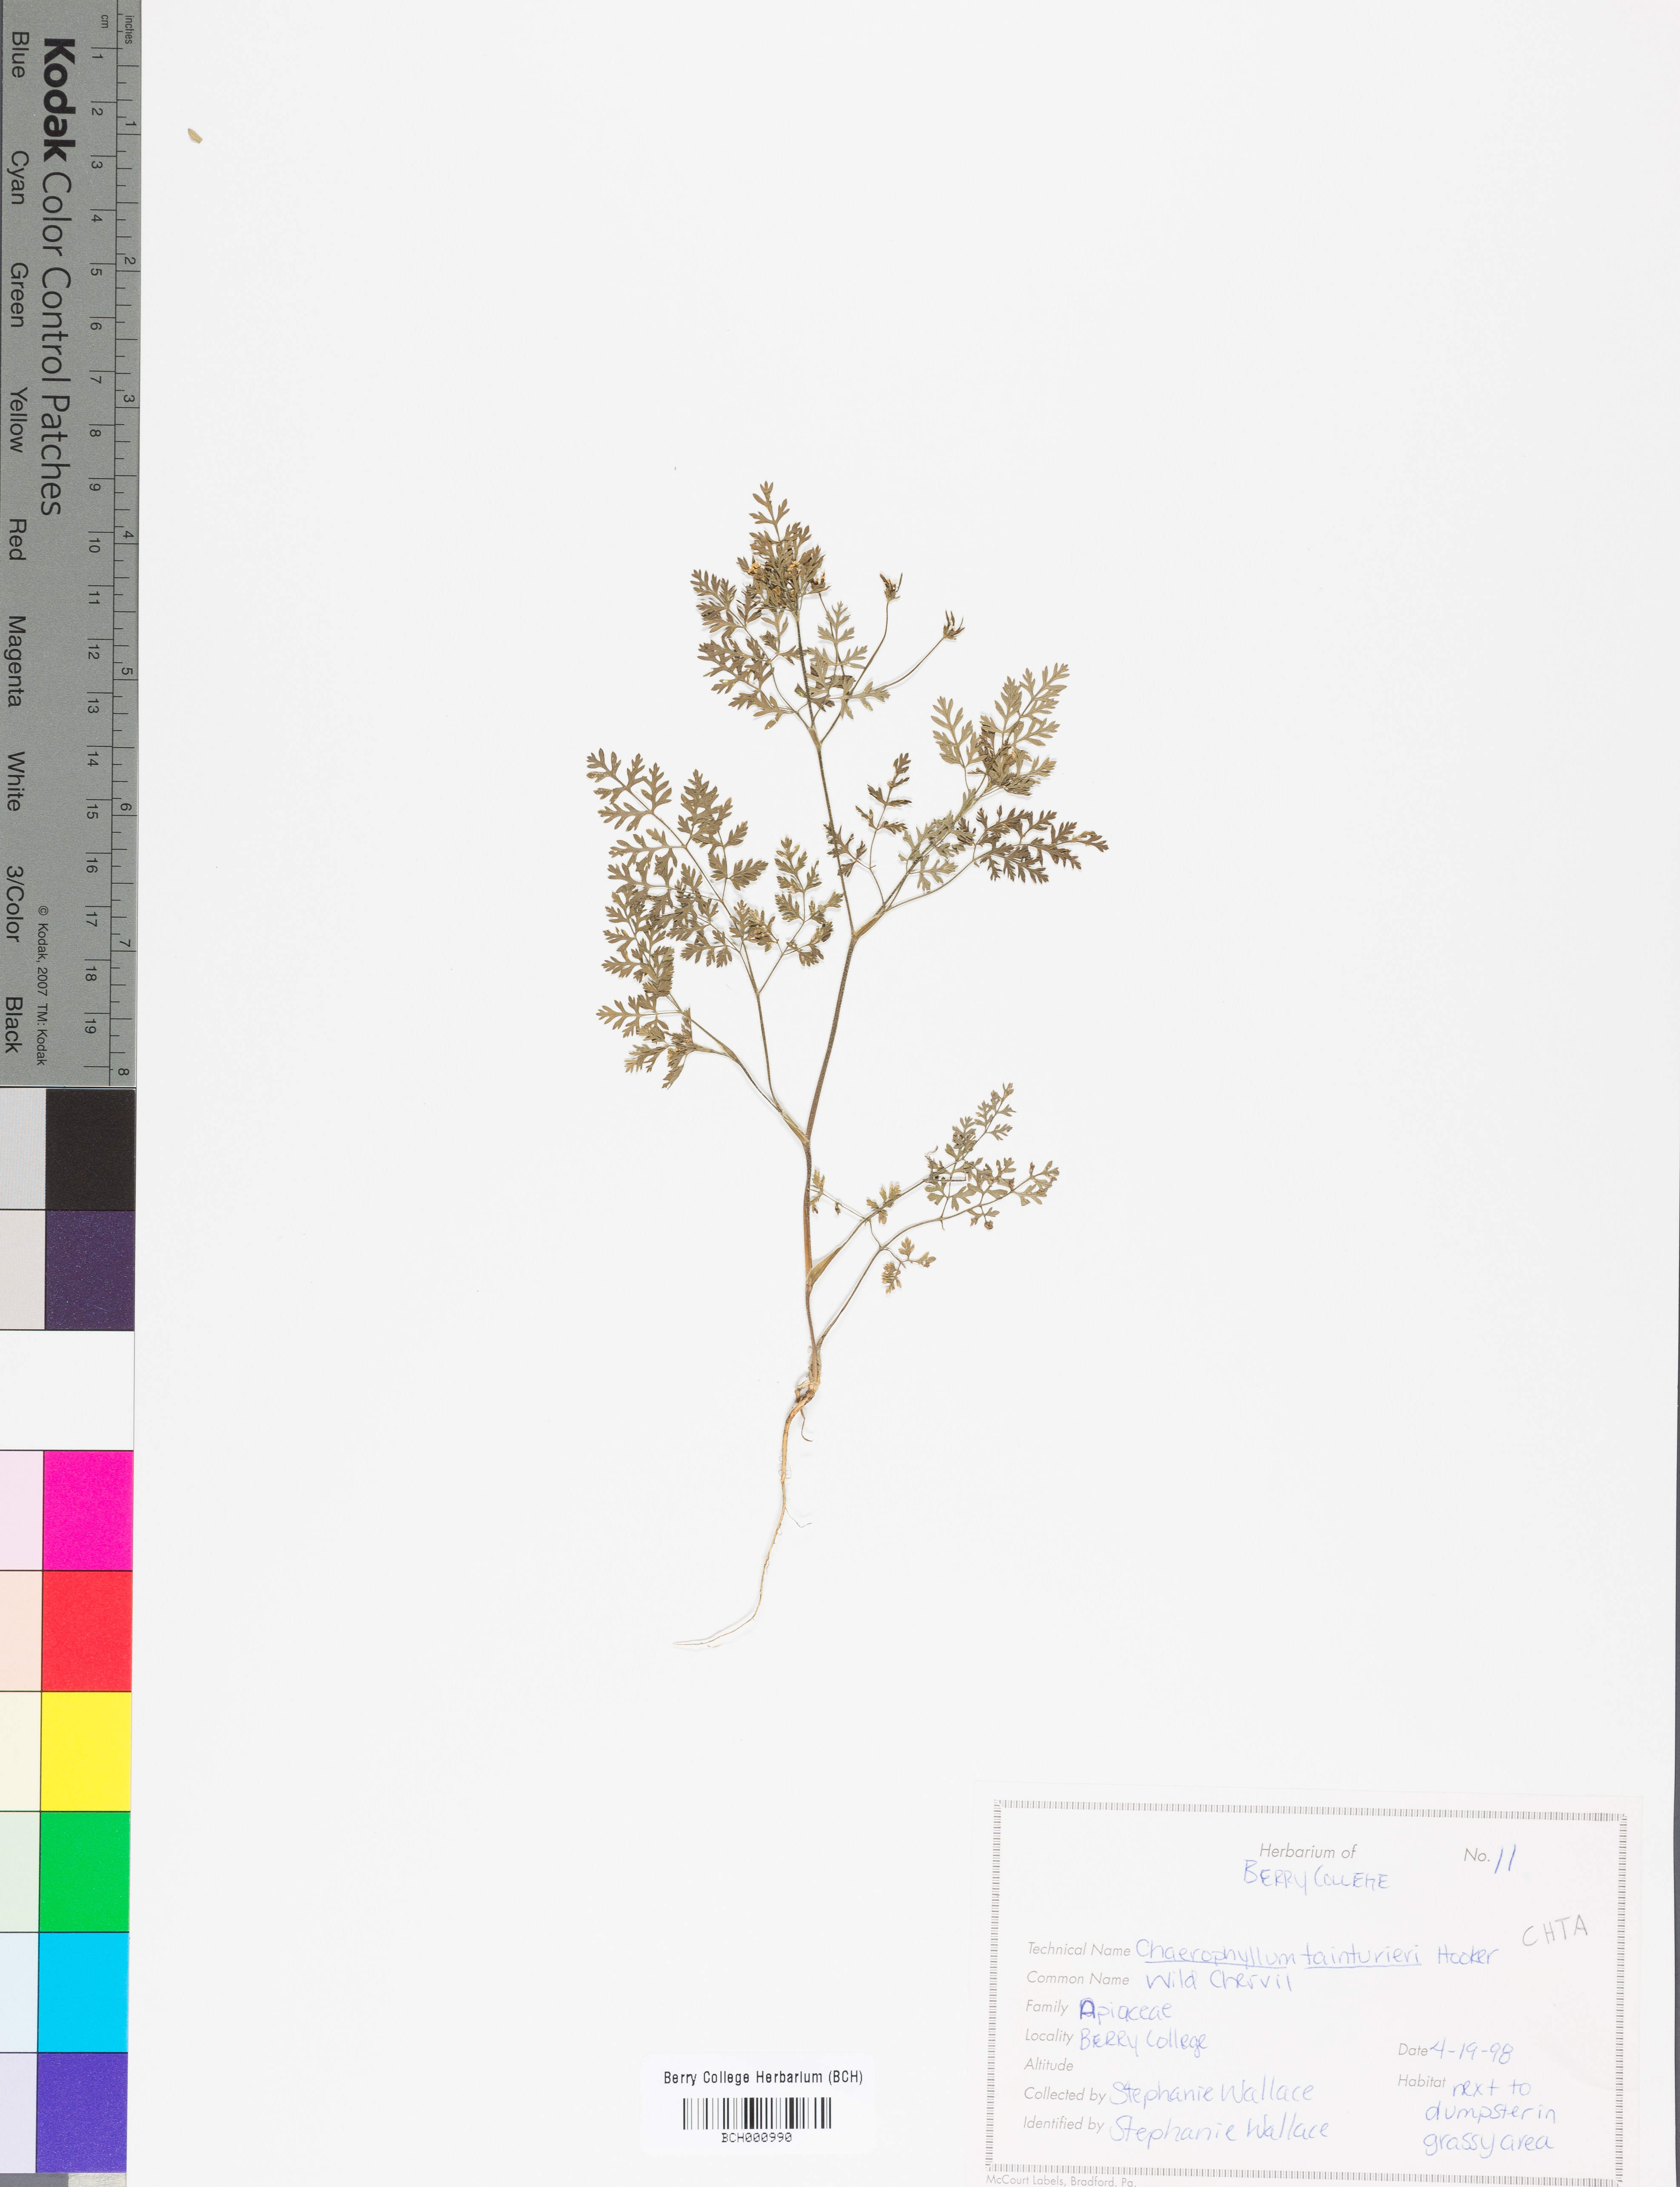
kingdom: Plantae
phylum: Tracheophyta
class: Magnoliopsida
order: Apiales
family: Apiaceae
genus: Chaerophyllum
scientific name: Chaerophyllum tainturieri
